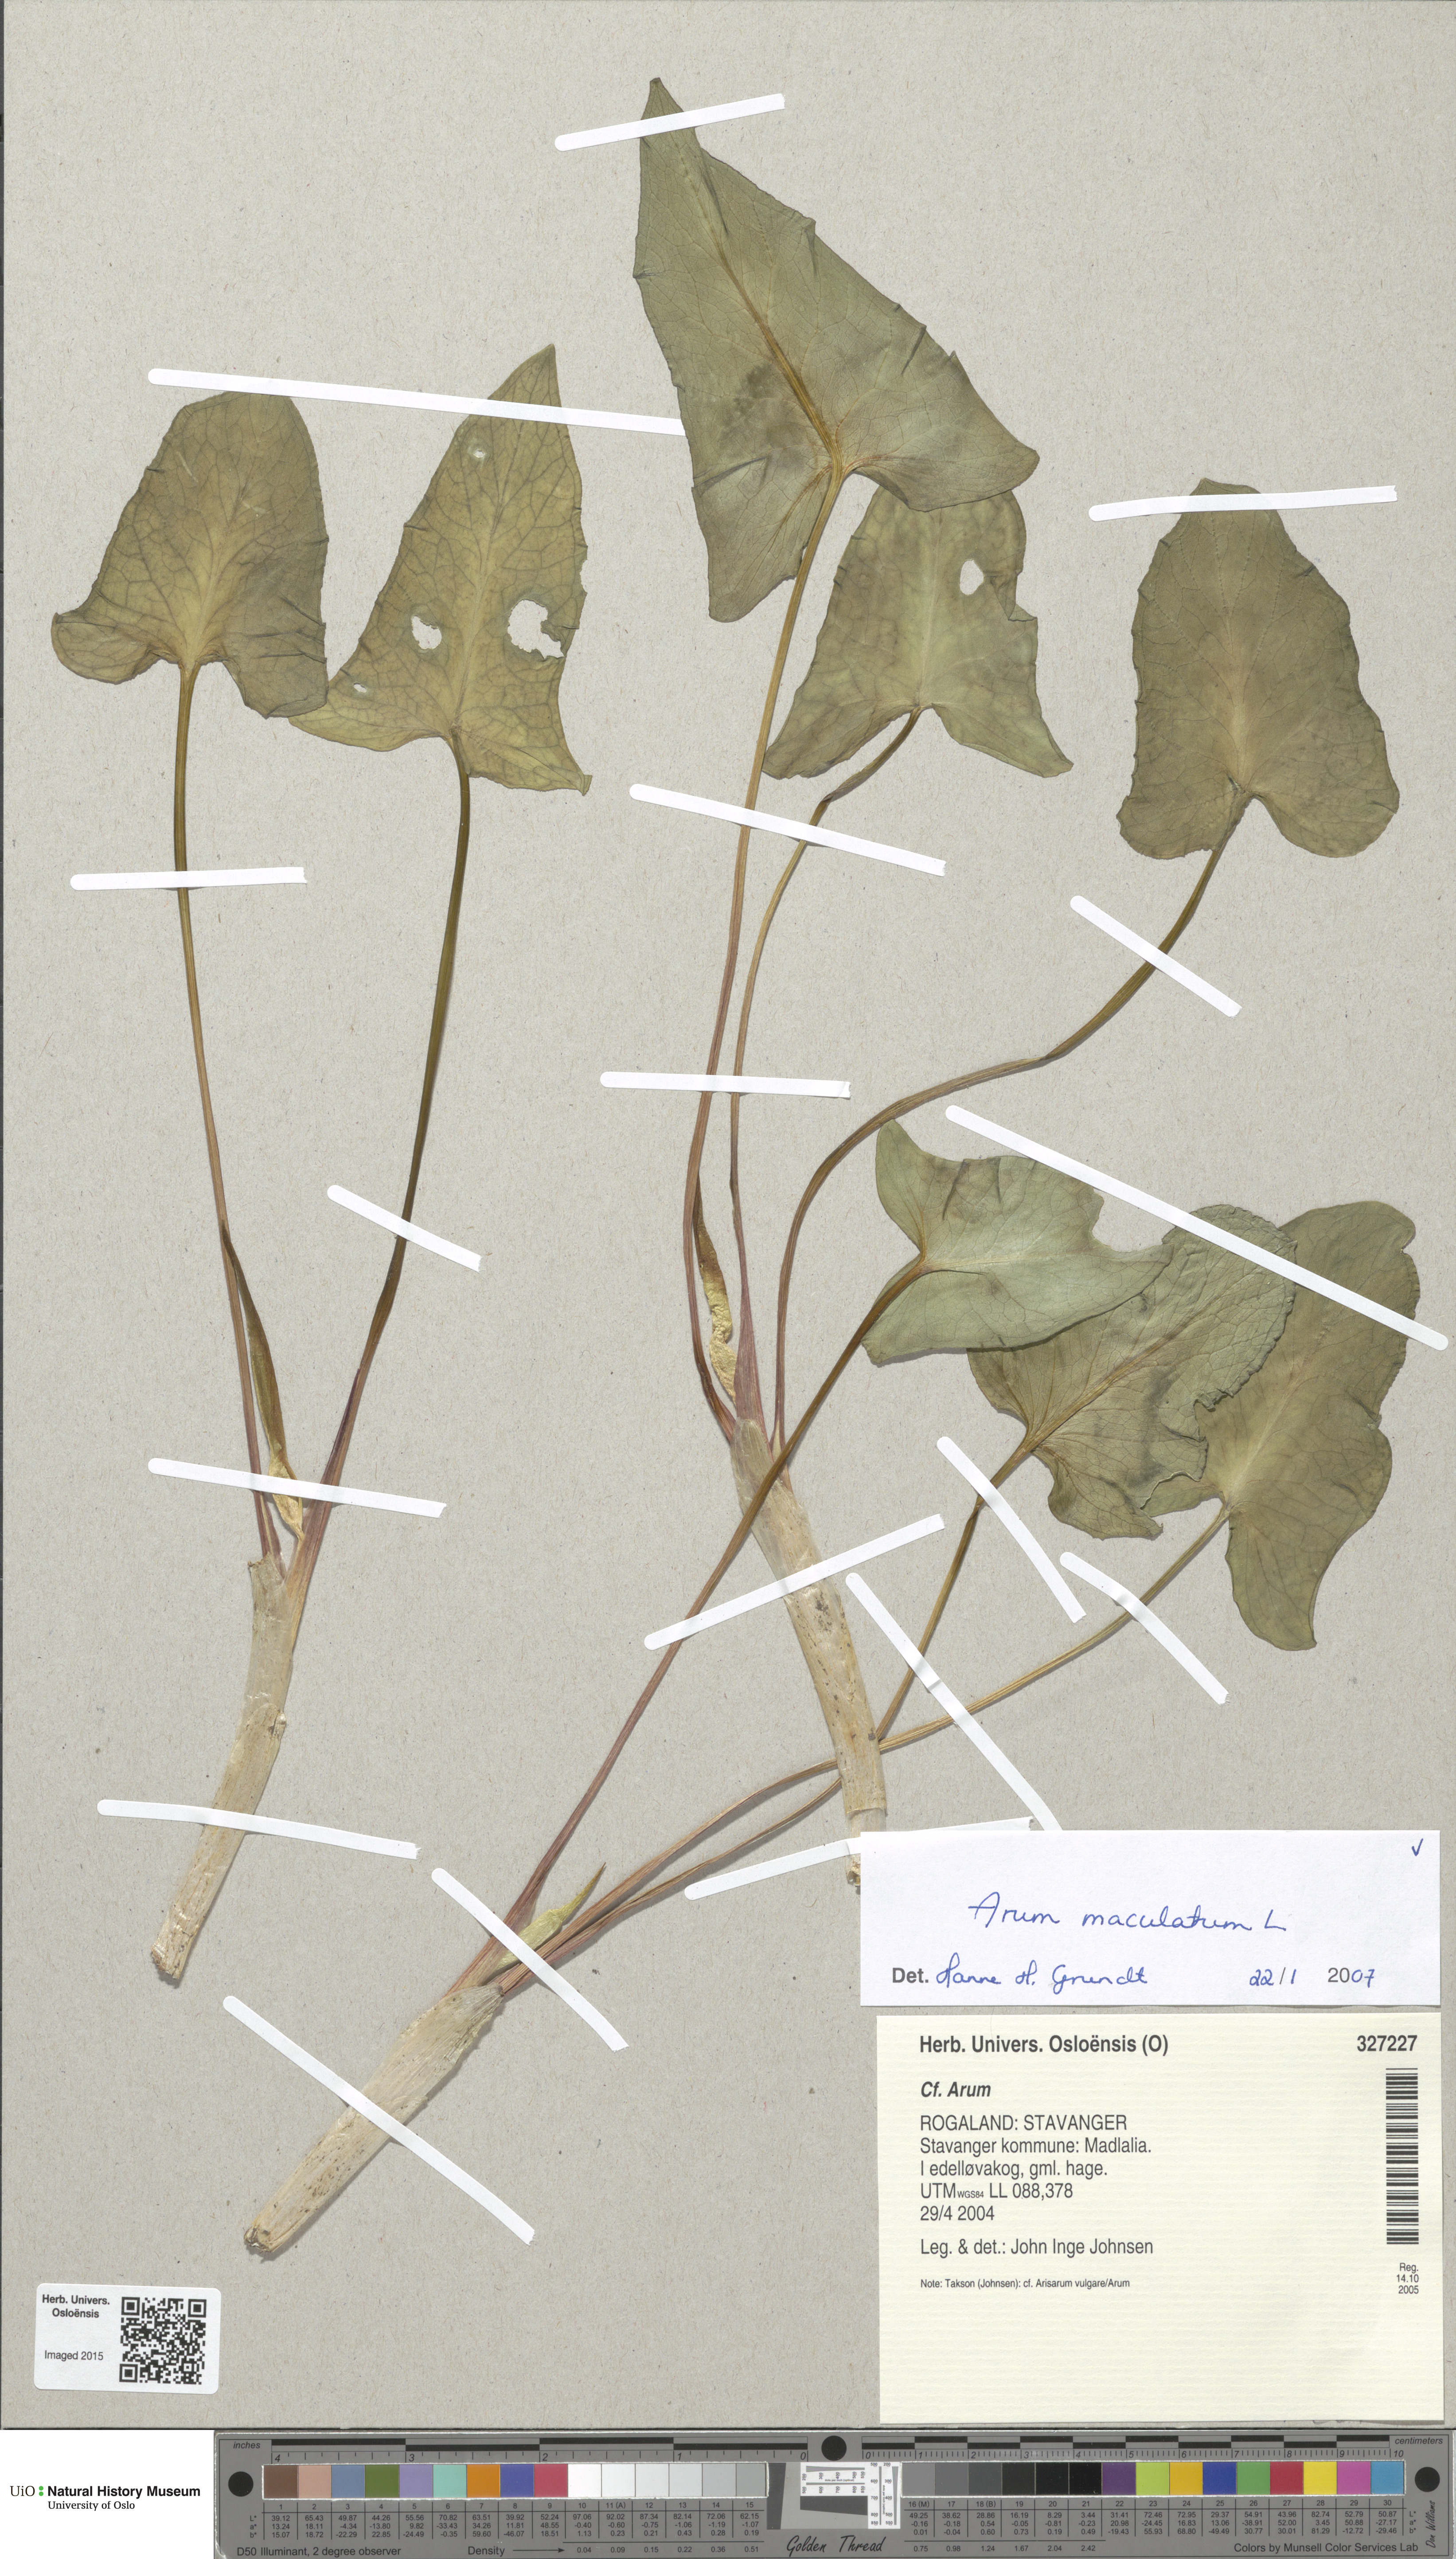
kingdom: Plantae
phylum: Tracheophyta
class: Liliopsida
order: Alismatales
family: Araceae
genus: Arum
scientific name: Arum maculatum
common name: Lords-and-ladies
